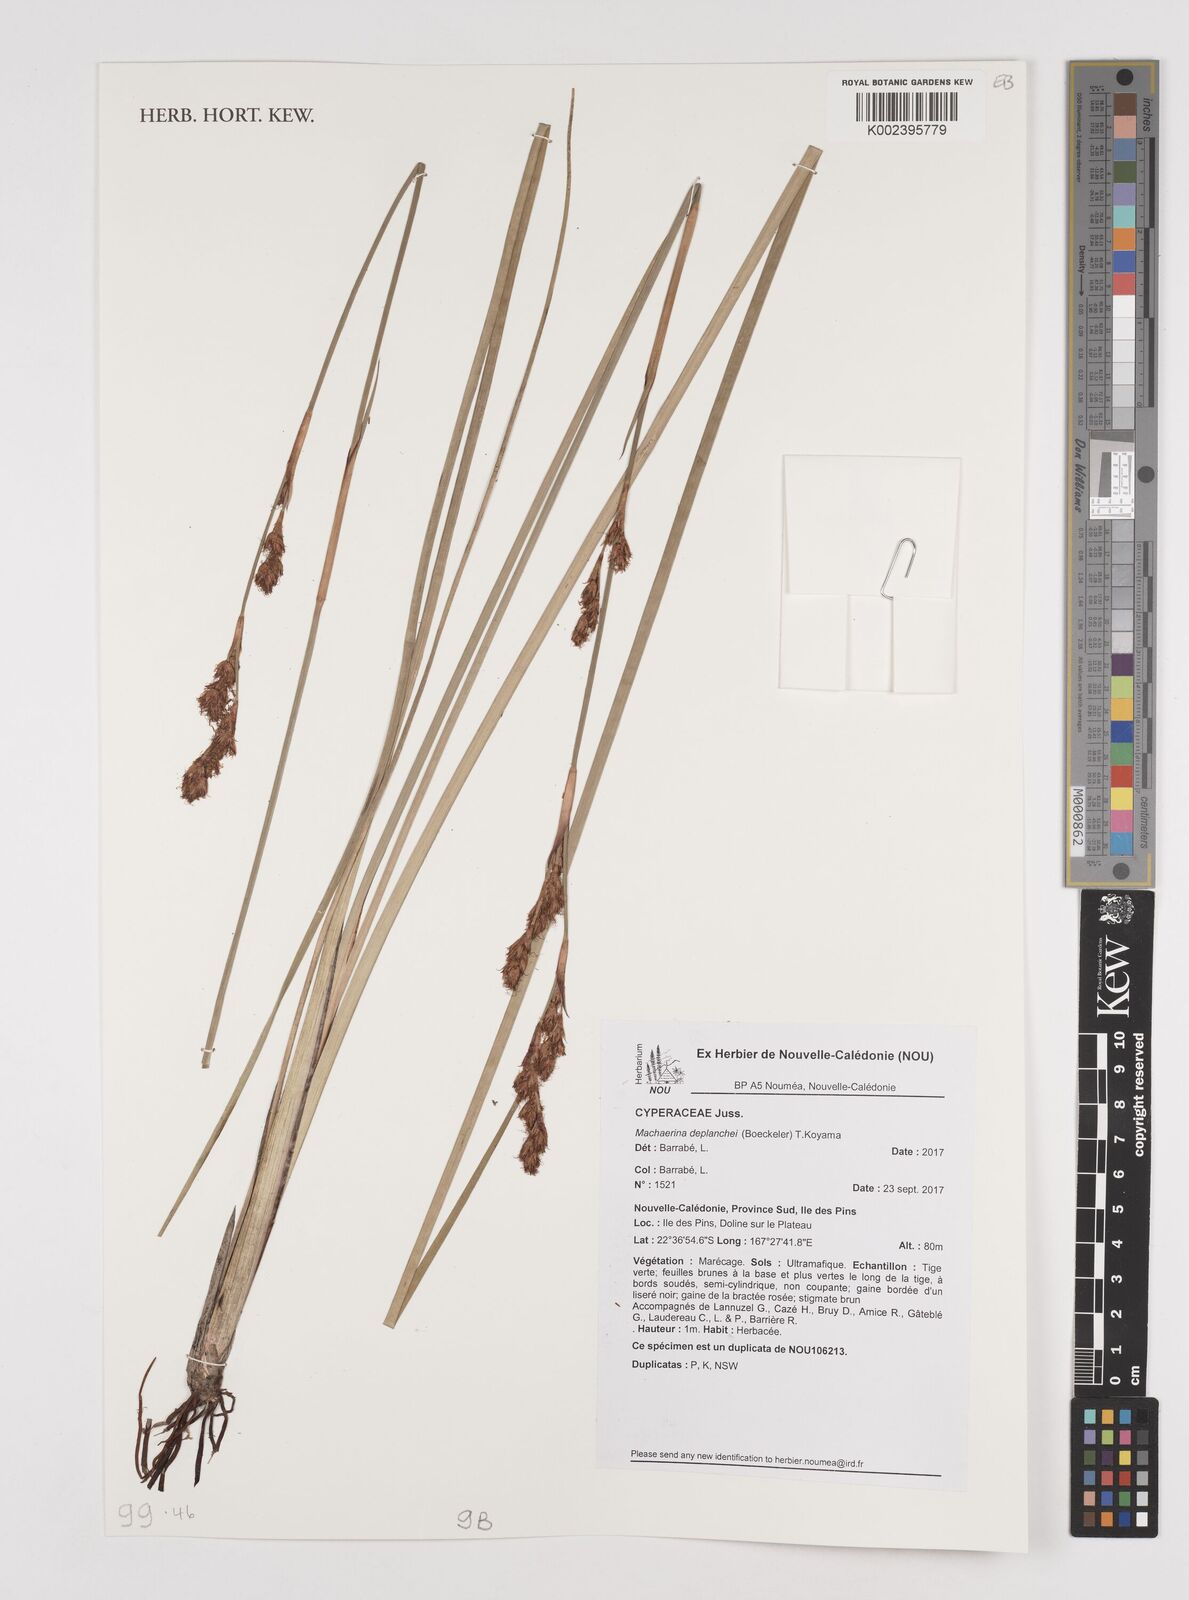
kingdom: Plantae
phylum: Tracheophyta
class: Liliopsida
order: Poales
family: Cyperaceae
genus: Machaerina
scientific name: Machaerina deplanchei
